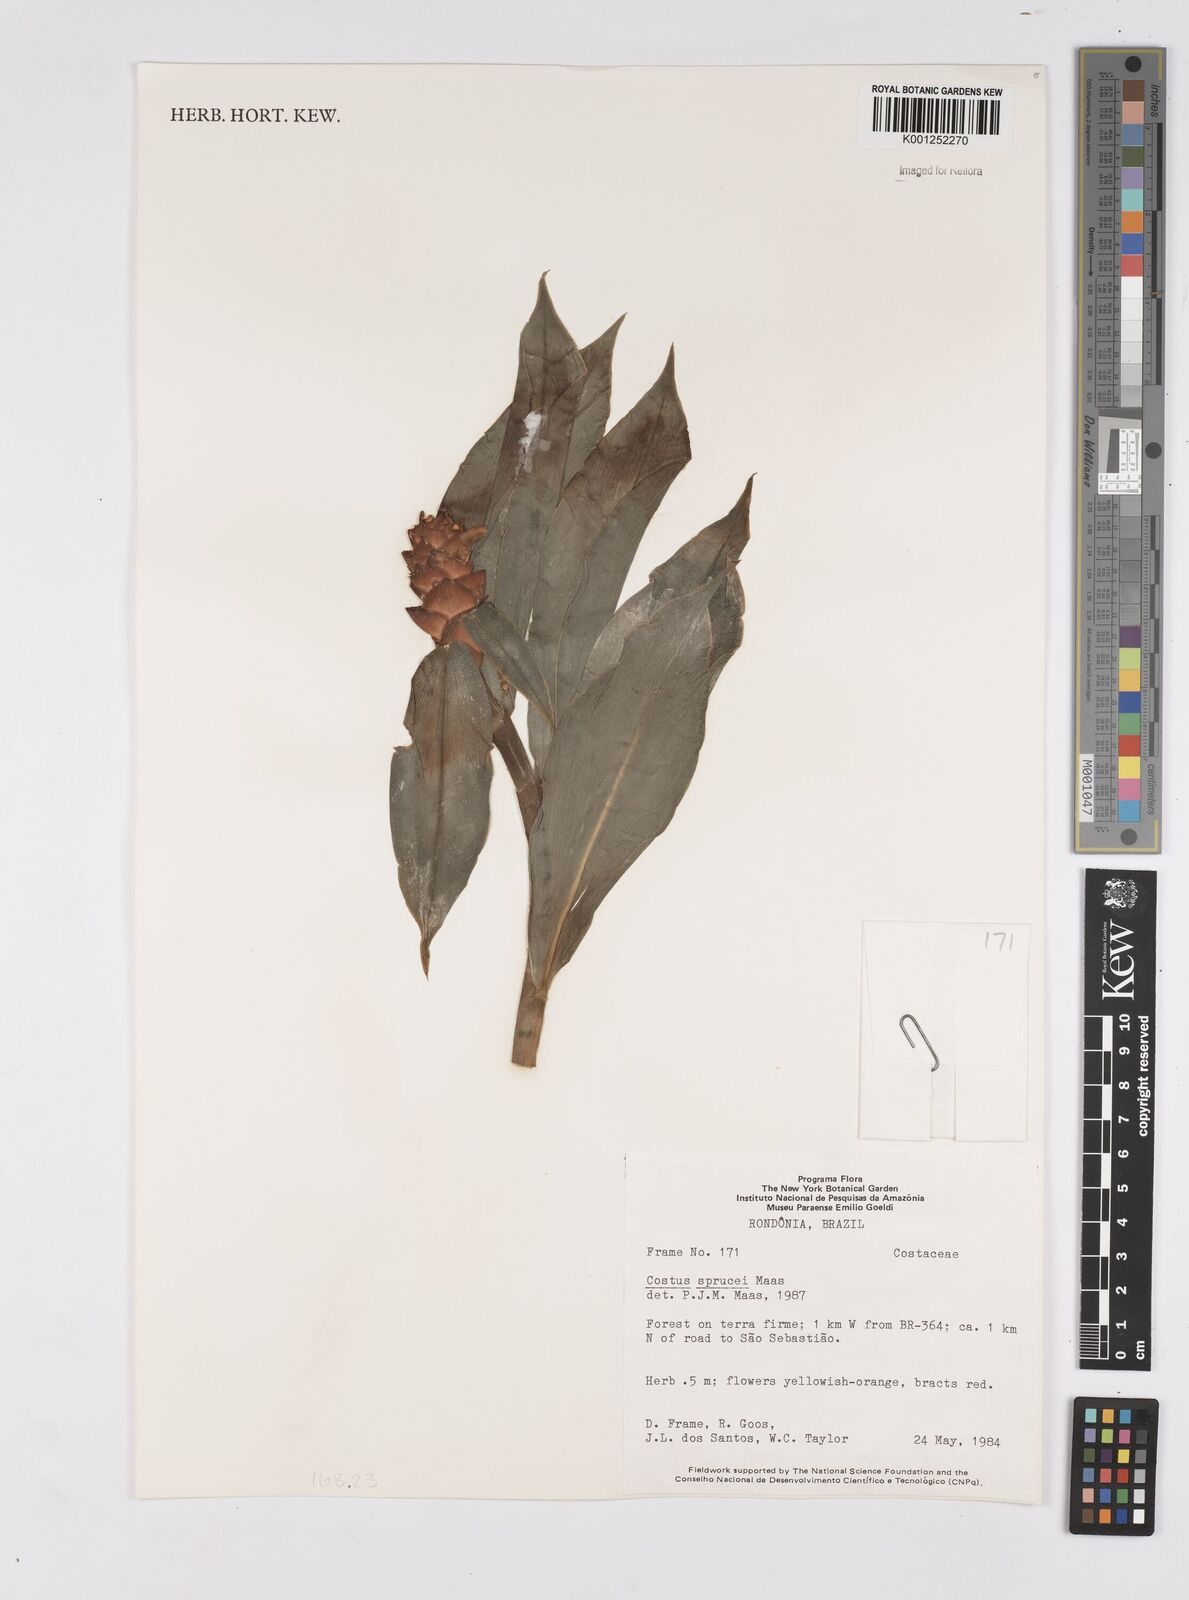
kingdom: Plantae
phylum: Tracheophyta
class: Liliopsida
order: Zingiberales
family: Costaceae
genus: Costus
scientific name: Costus sprucei
